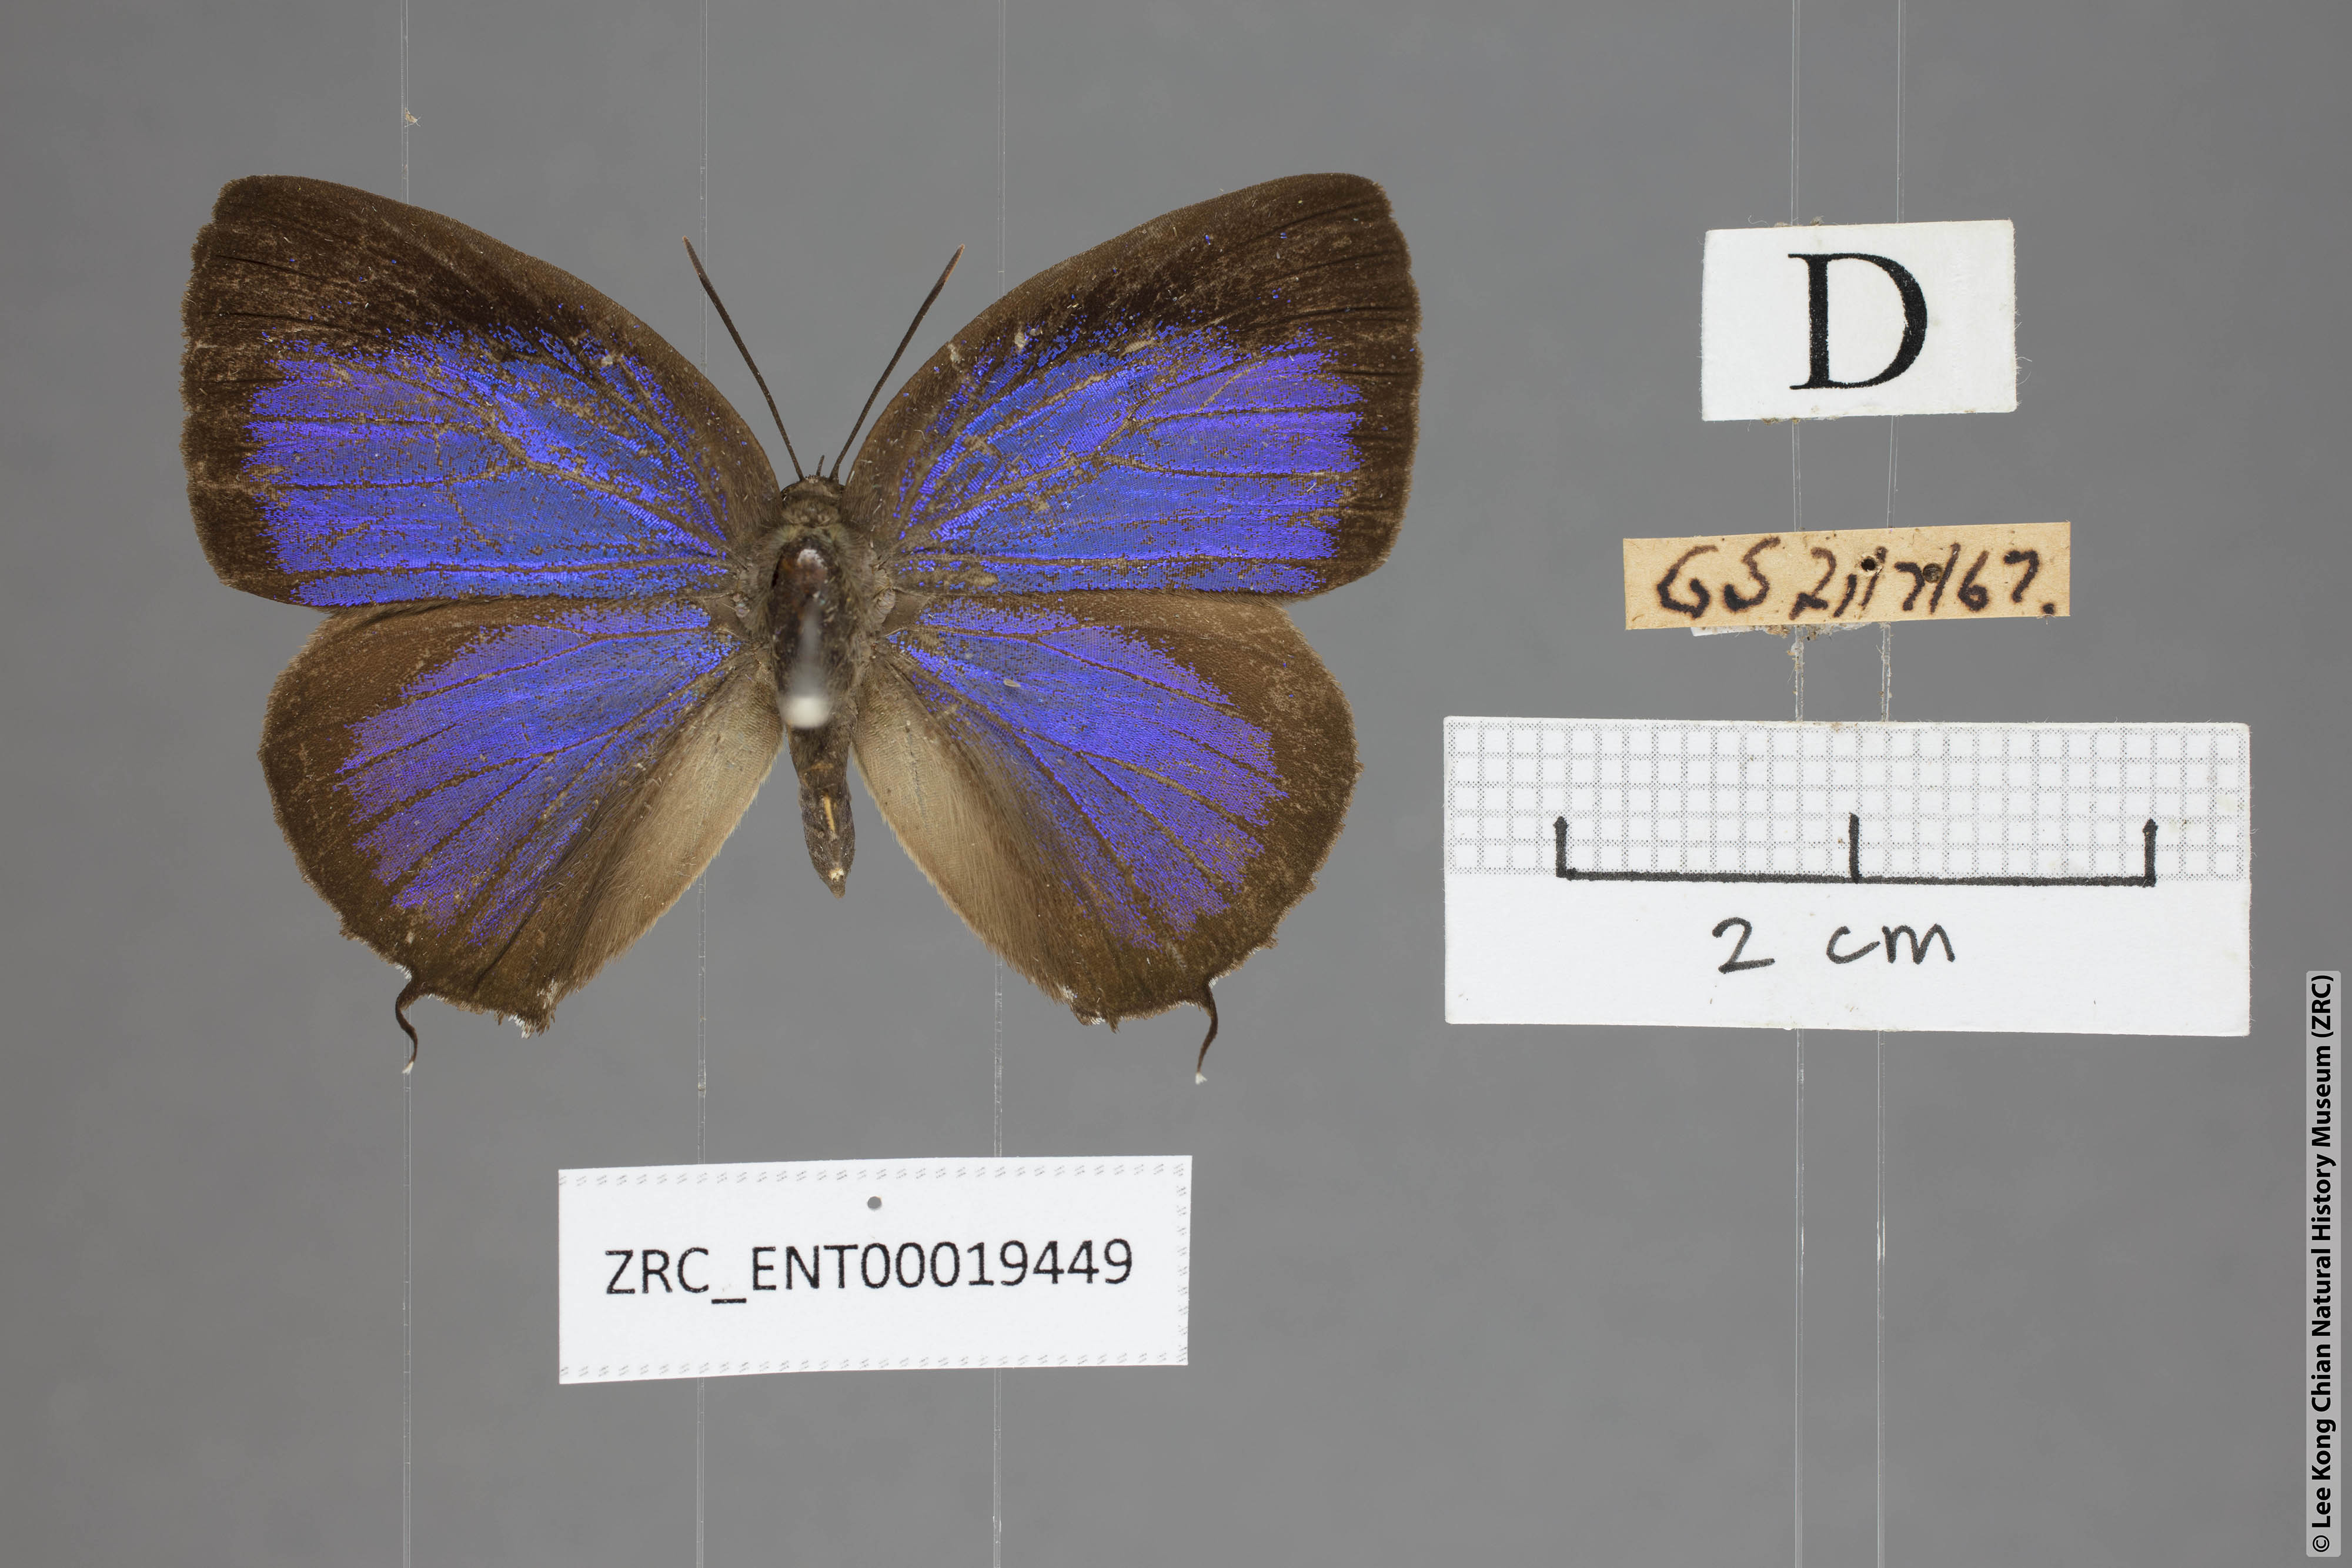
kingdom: Animalia
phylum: Arthropoda
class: Insecta
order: Lepidoptera
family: Lycaenidae
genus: Arhopala
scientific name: Arhopala eumolphus
